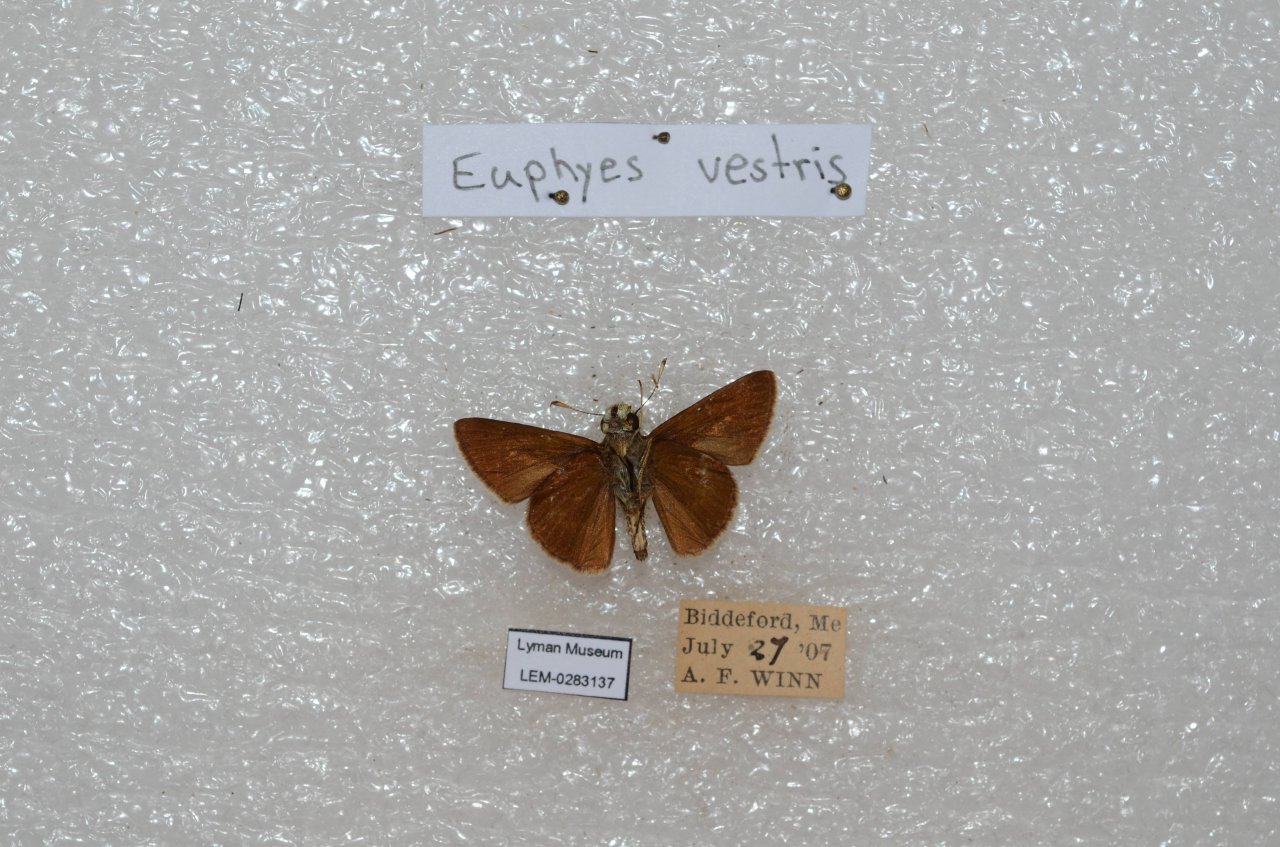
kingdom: Animalia
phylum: Arthropoda
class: Insecta
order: Lepidoptera
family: Hesperiidae
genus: Euphyes
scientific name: Euphyes vestris
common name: Dun Skipper
